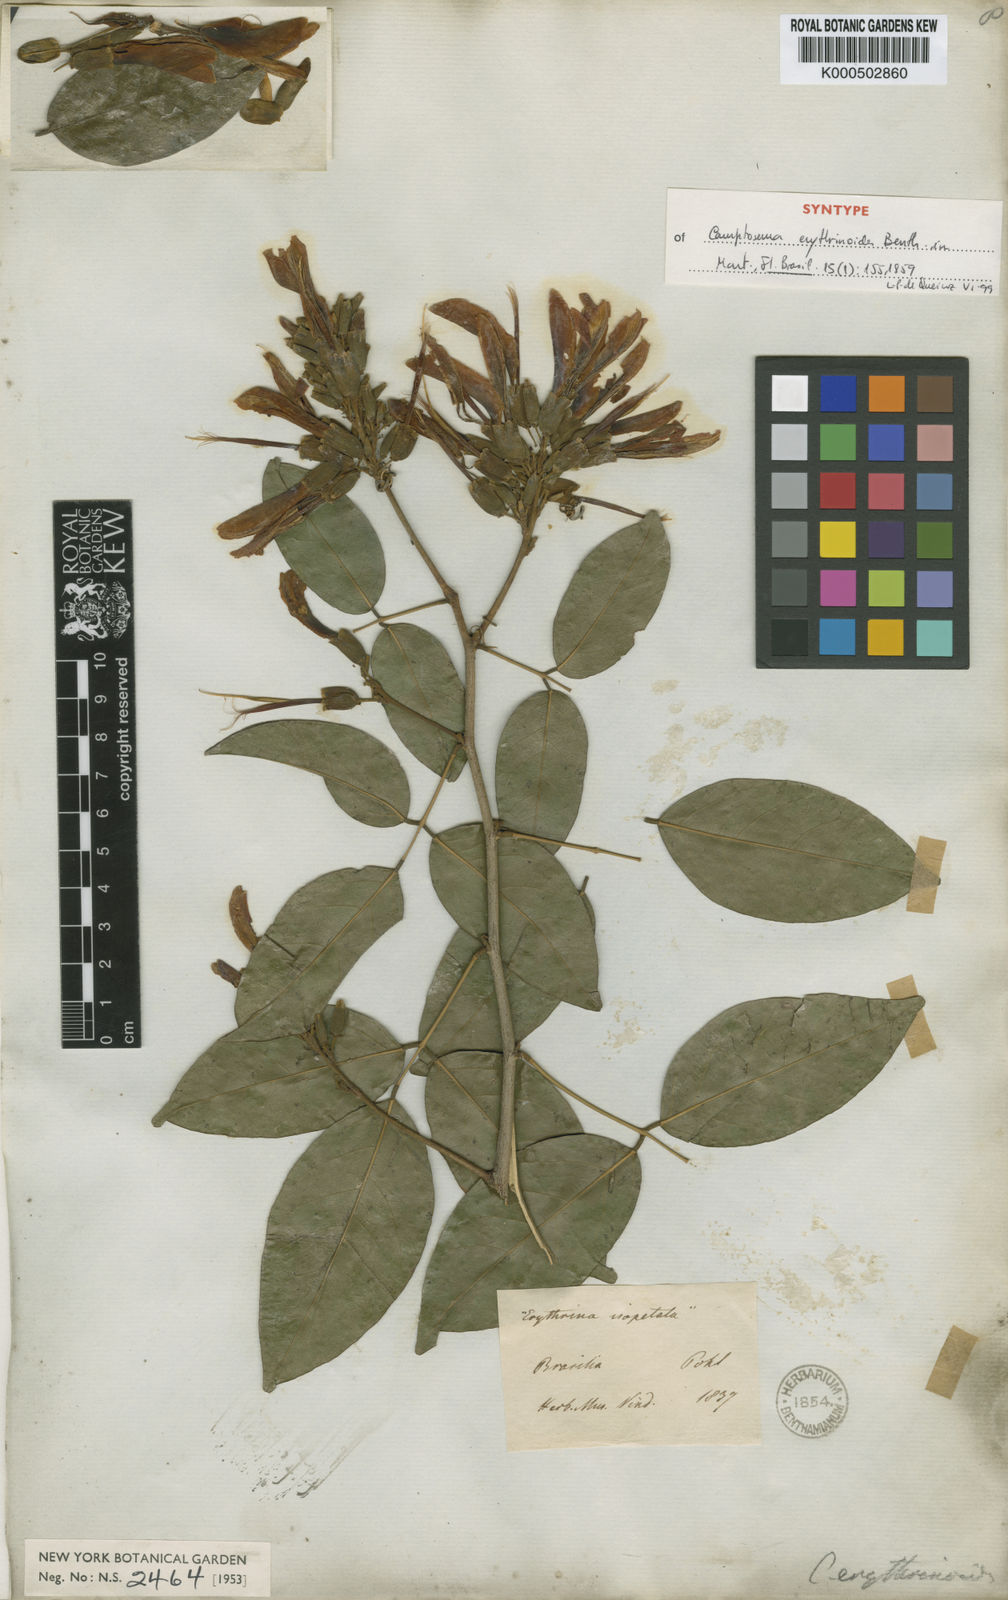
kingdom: Plantae
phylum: Tracheophyta
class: Magnoliopsida
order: Fabales
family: Fabaceae
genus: Cratylia
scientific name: Cratylia isopetala
